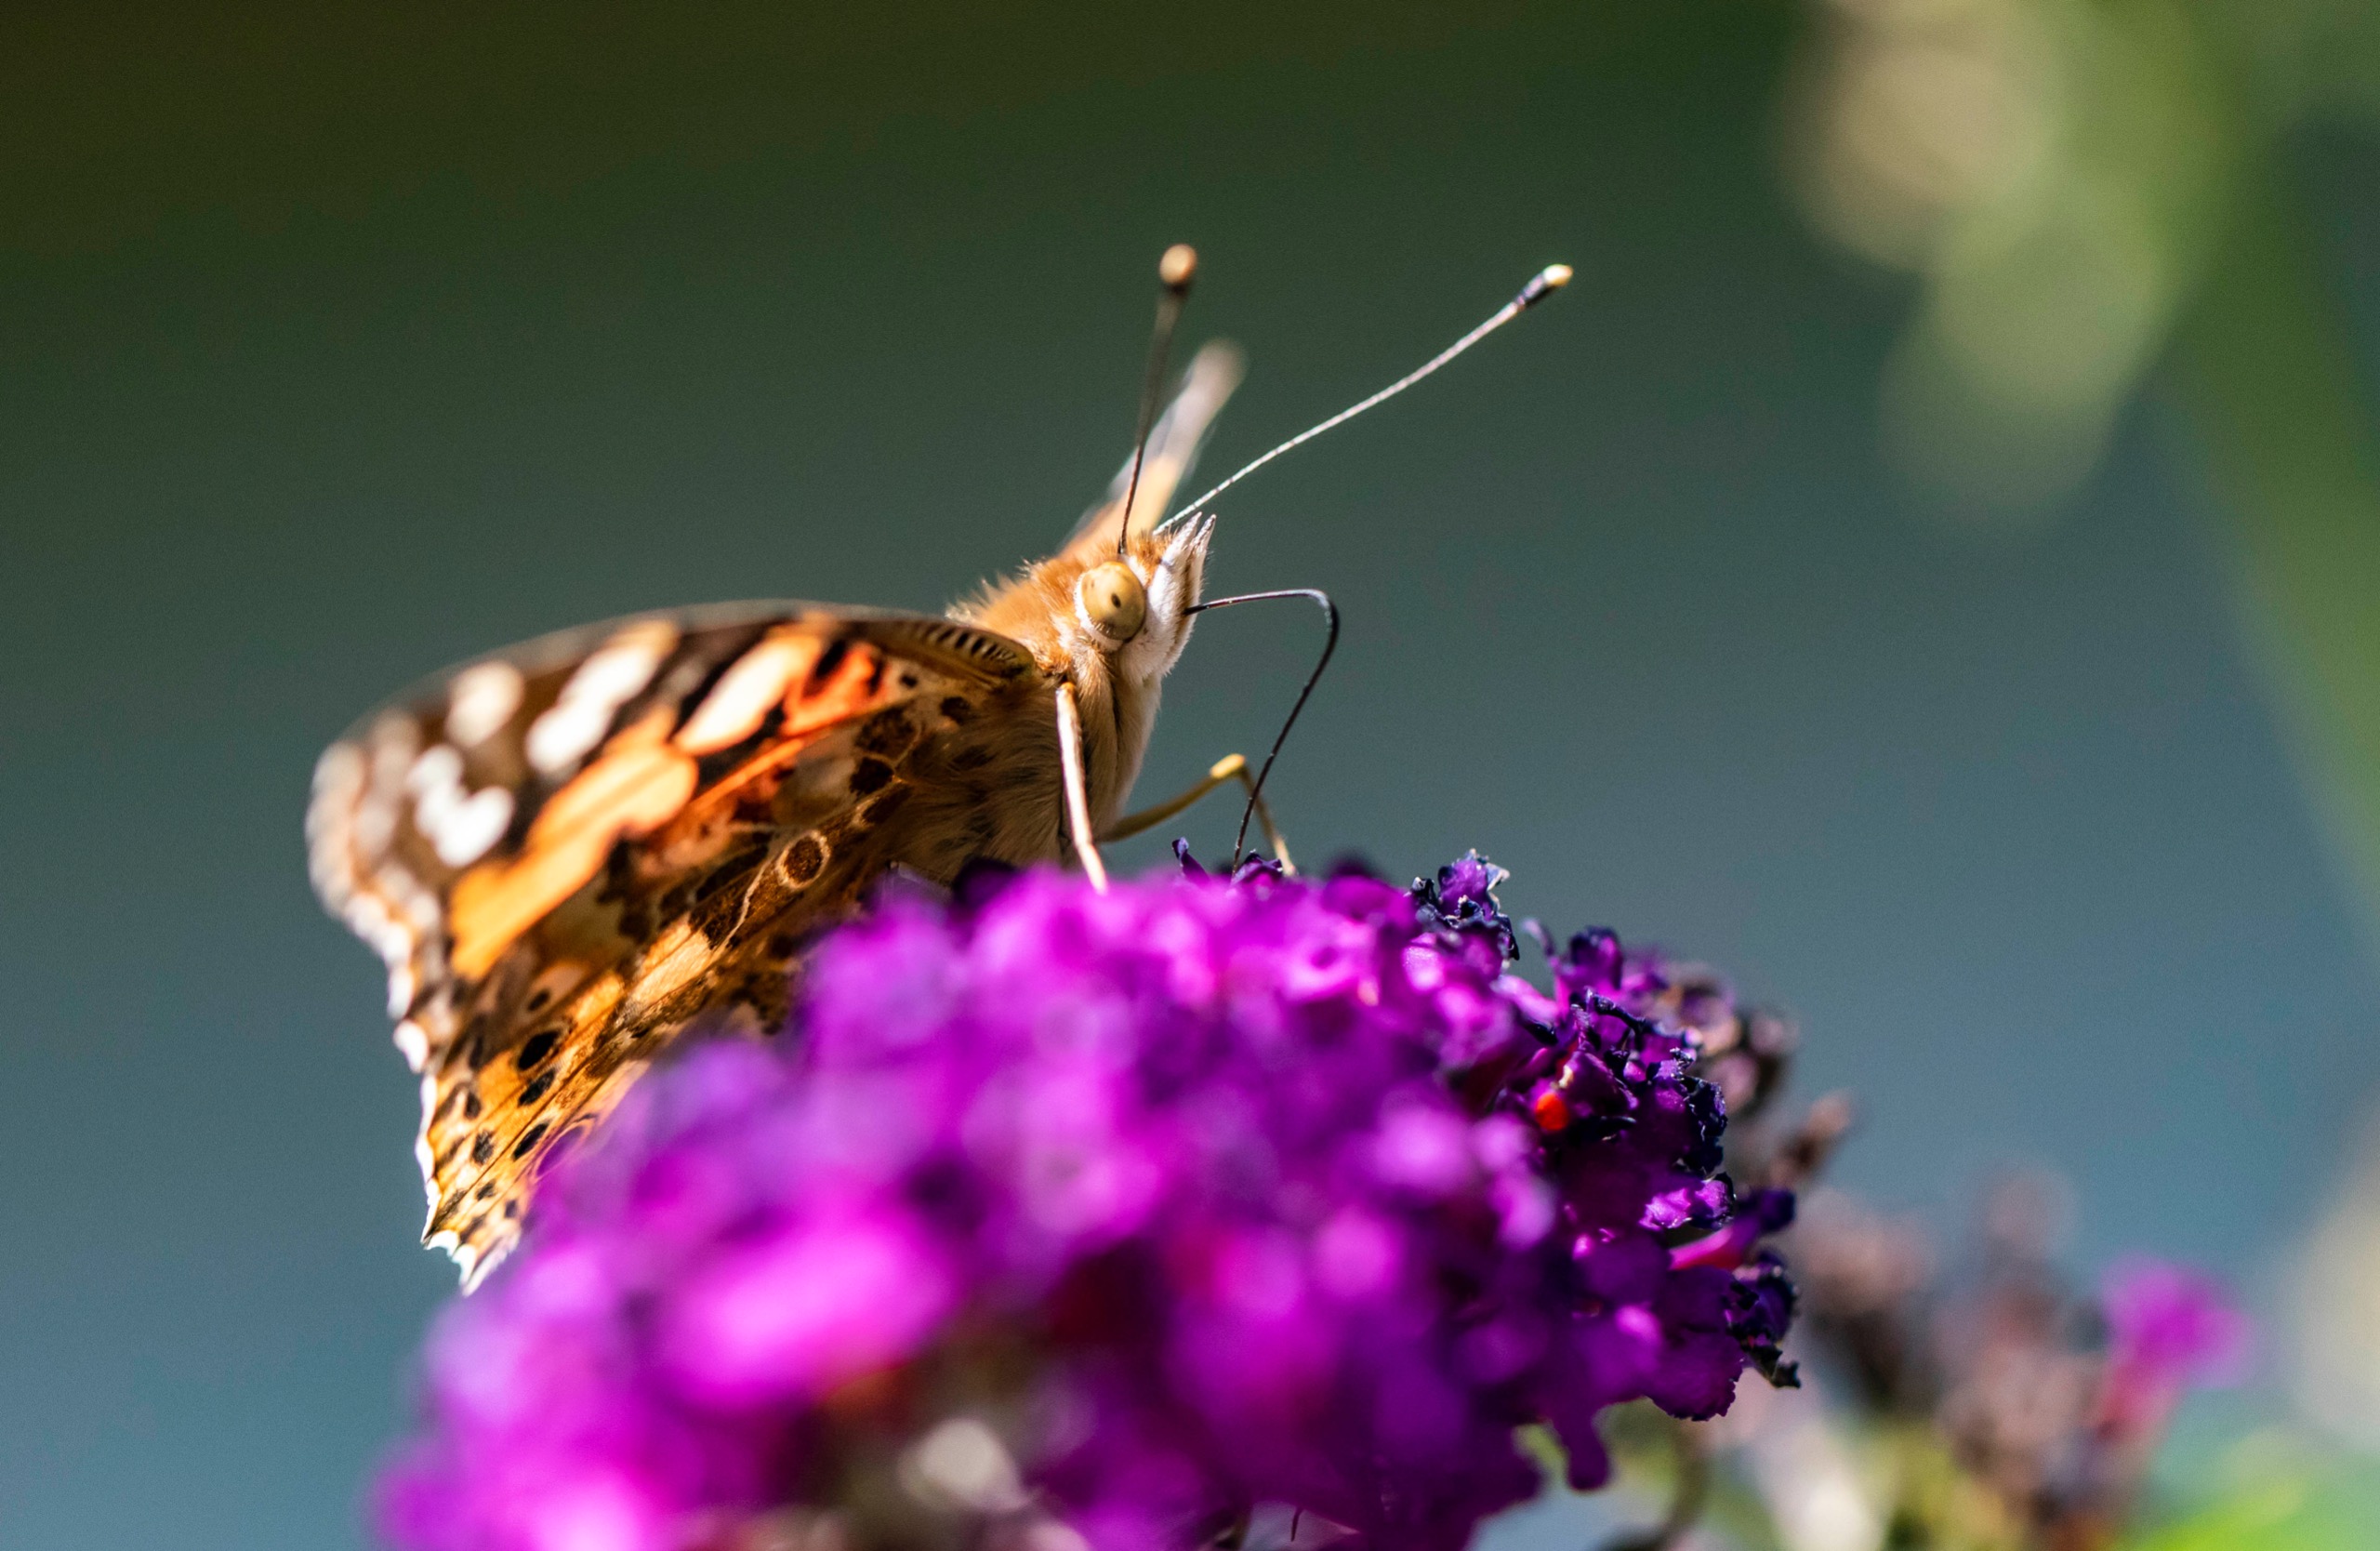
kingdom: Animalia
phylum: Arthropoda
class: Insecta
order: Lepidoptera
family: Nymphalidae
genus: Vanessa
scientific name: Vanessa cardui
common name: Tidselsommerfugl
